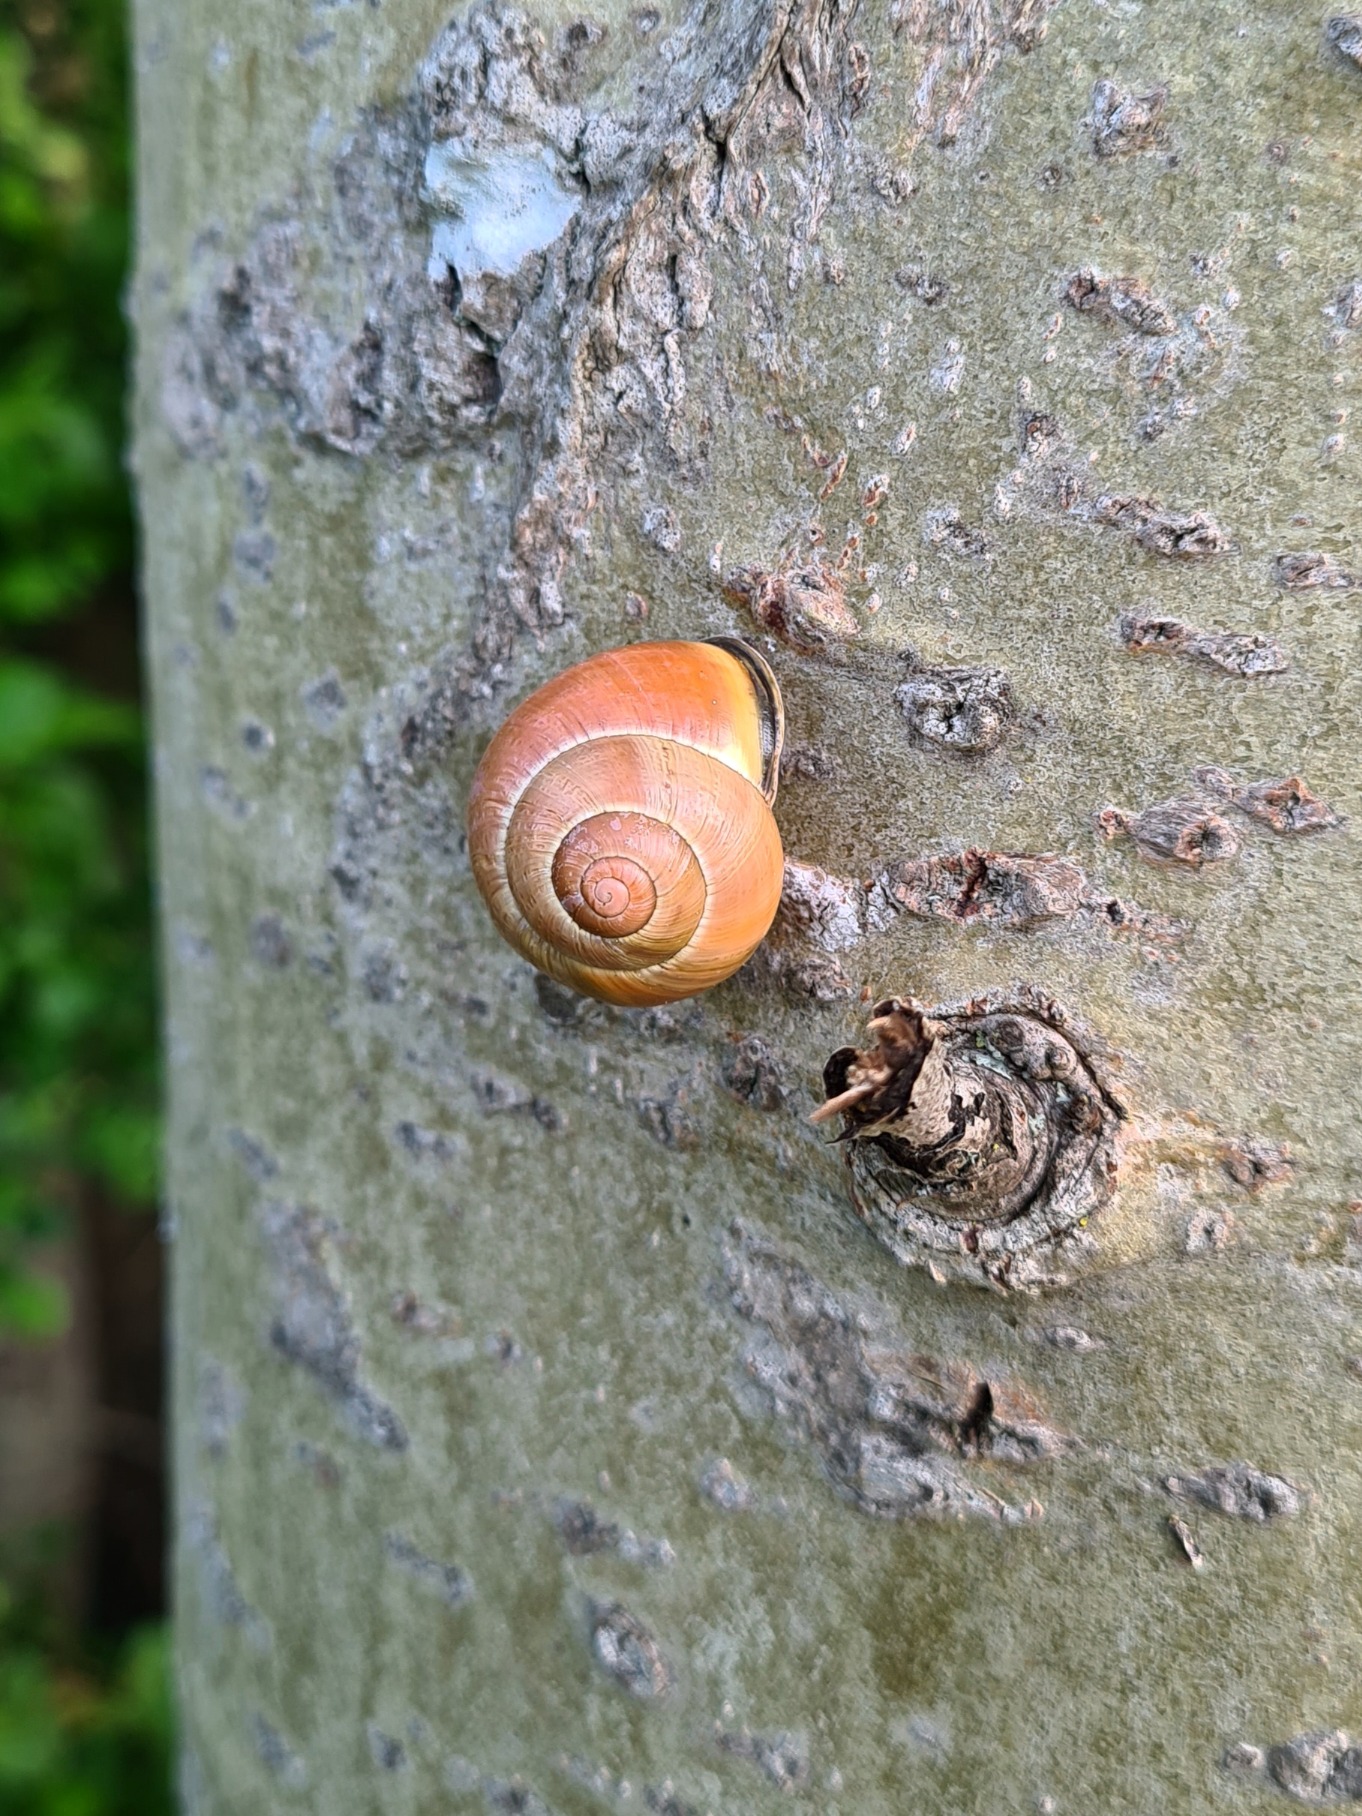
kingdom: Animalia
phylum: Mollusca
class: Gastropoda
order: Stylommatophora
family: Helicidae
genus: Cepaea
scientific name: Cepaea nemoralis
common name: Lundsnegl
